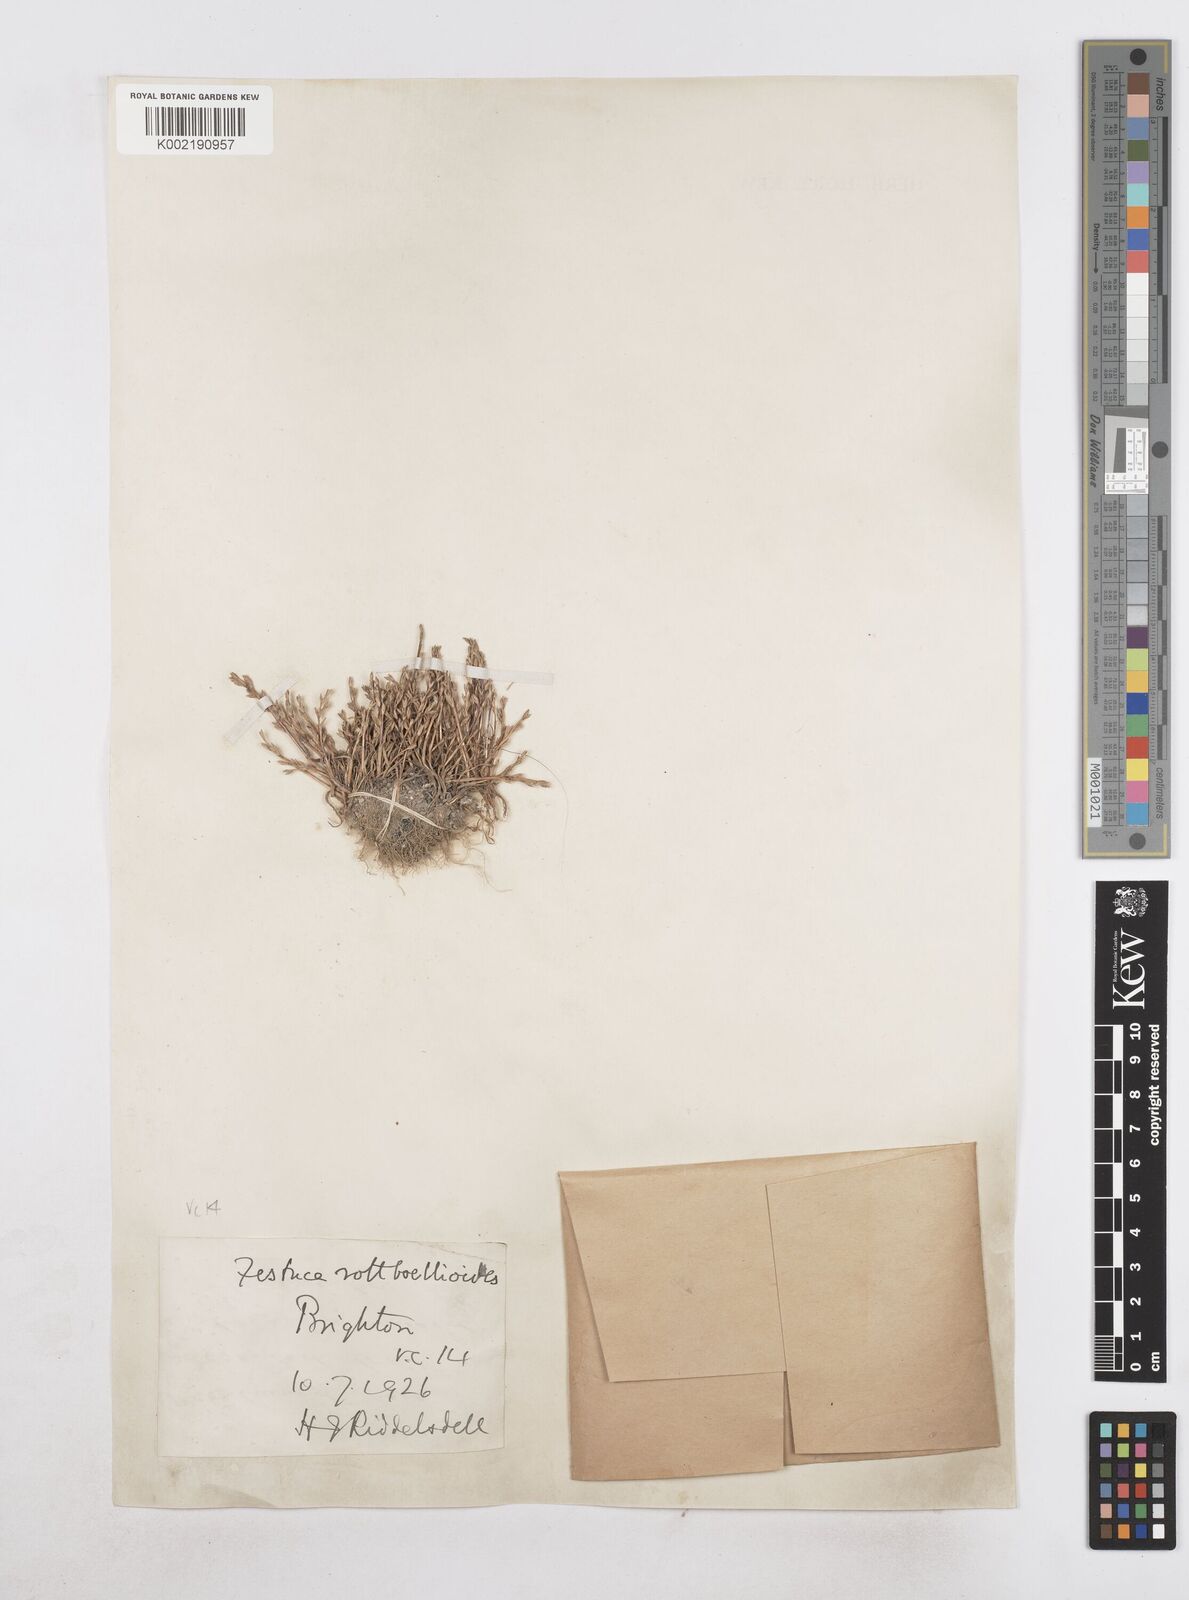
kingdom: Plantae
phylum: Tracheophyta
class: Liliopsida
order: Poales
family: Poaceae
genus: Catapodium
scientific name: Catapodium marinum
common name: Sea fern-grass
